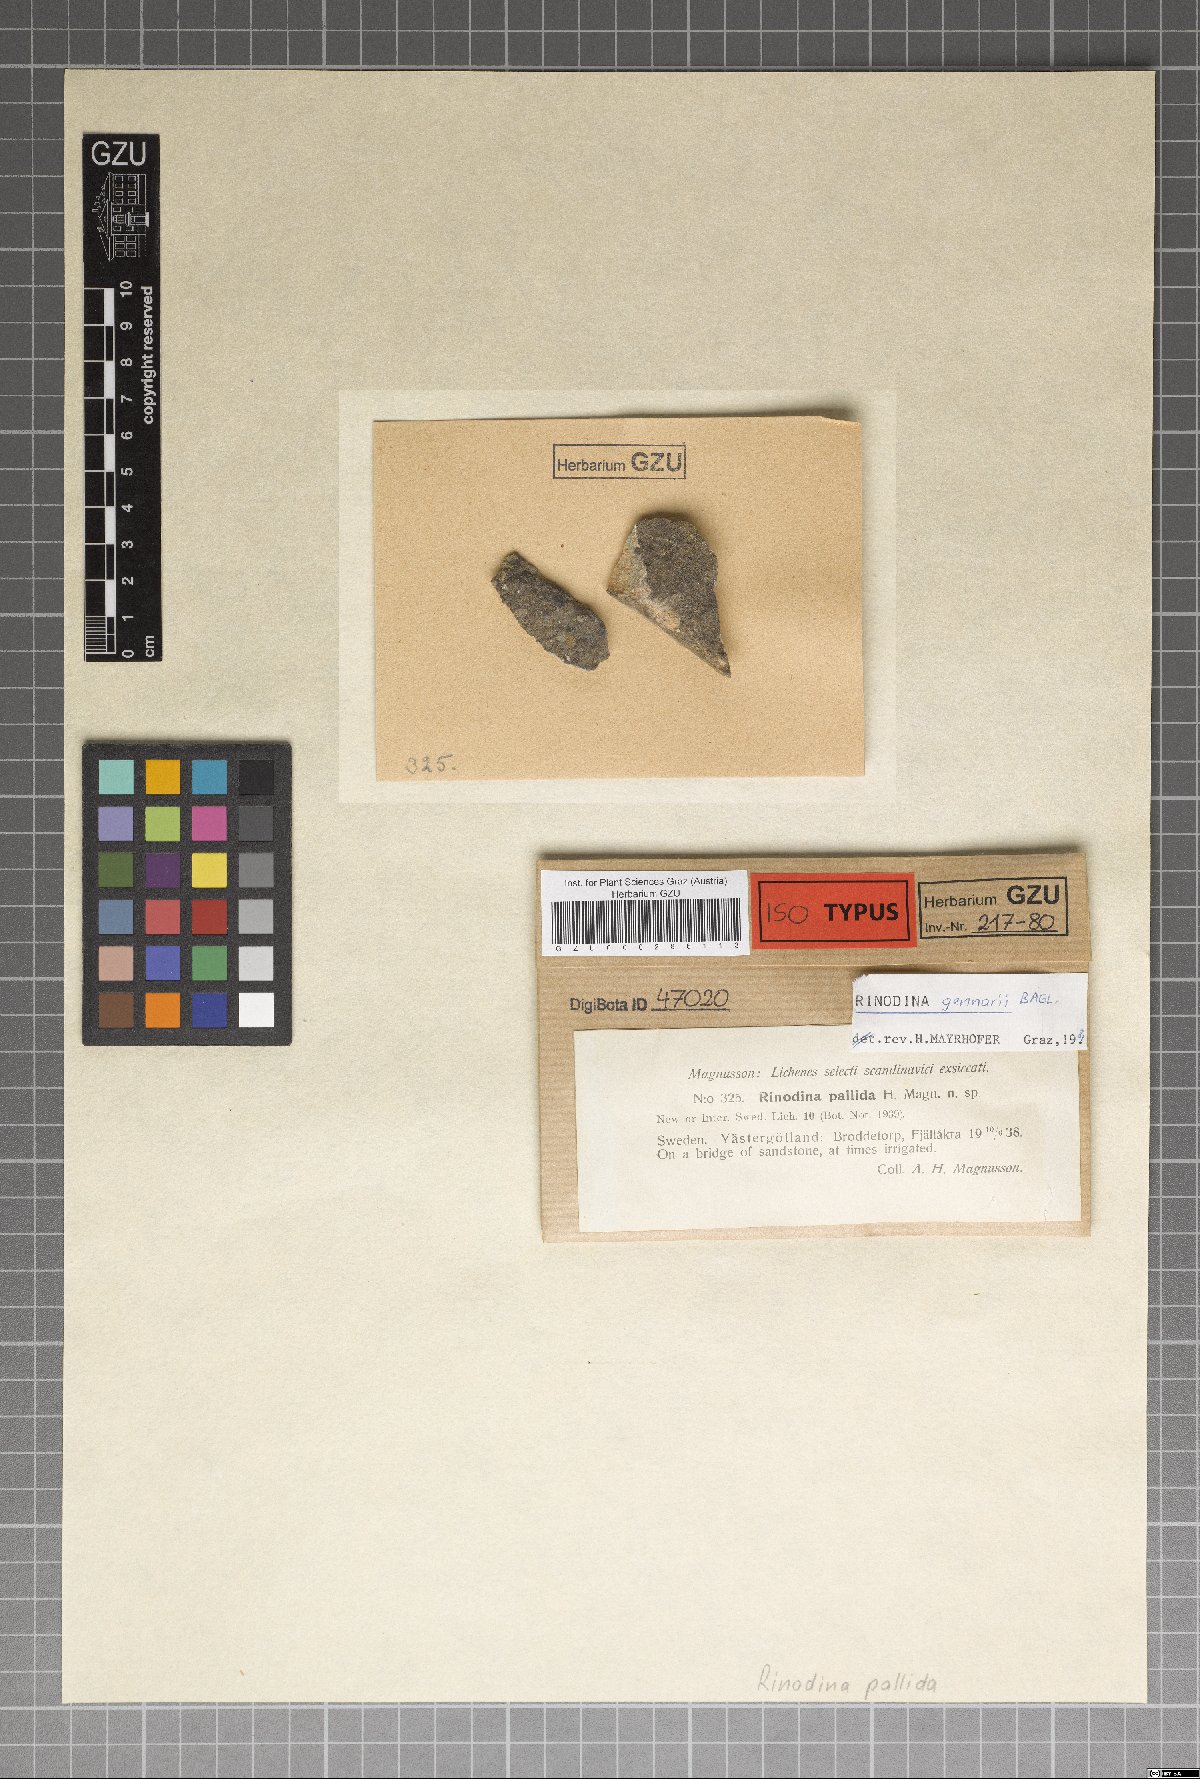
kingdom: Fungi
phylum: Ascomycota
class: Lecanoromycetes
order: Caliciales
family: Physciaceae
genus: Rinodina
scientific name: Rinodina gennarii
